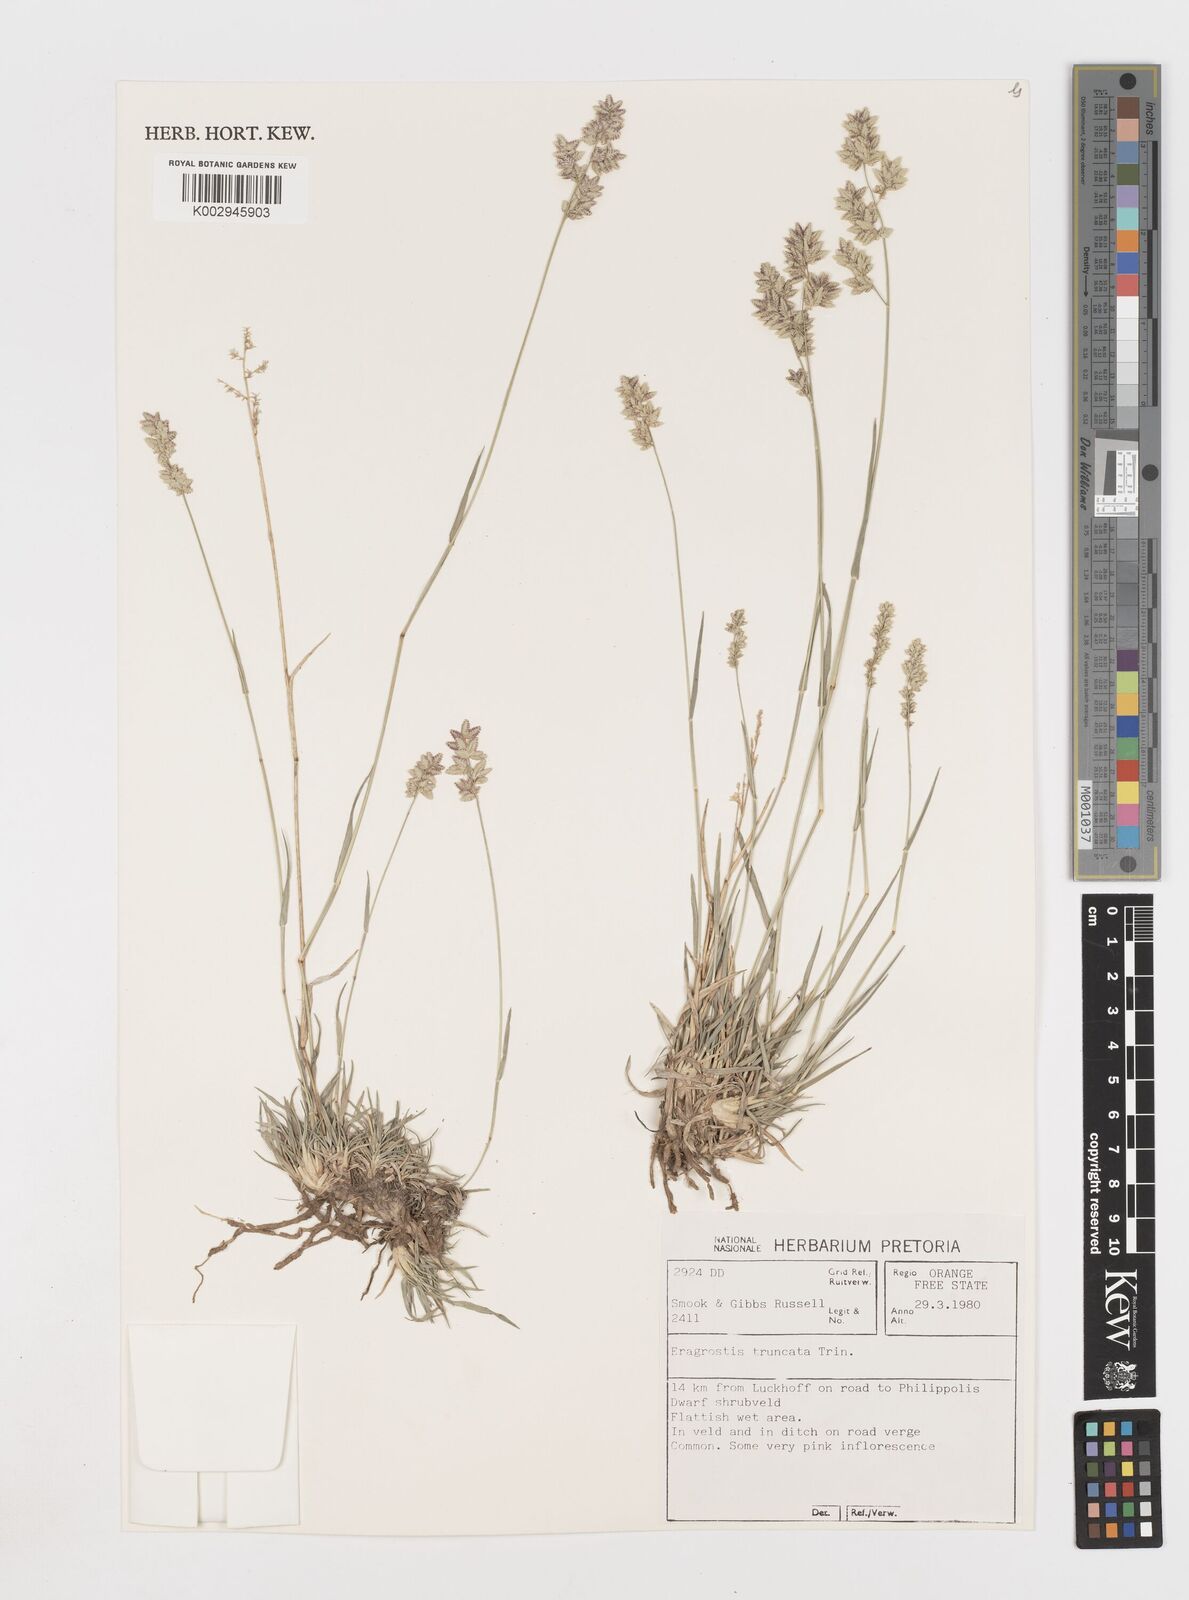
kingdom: Plantae
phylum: Tracheophyta
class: Liliopsida
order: Poales
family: Poaceae
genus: Eragrostis
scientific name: Eragrostis truncata
